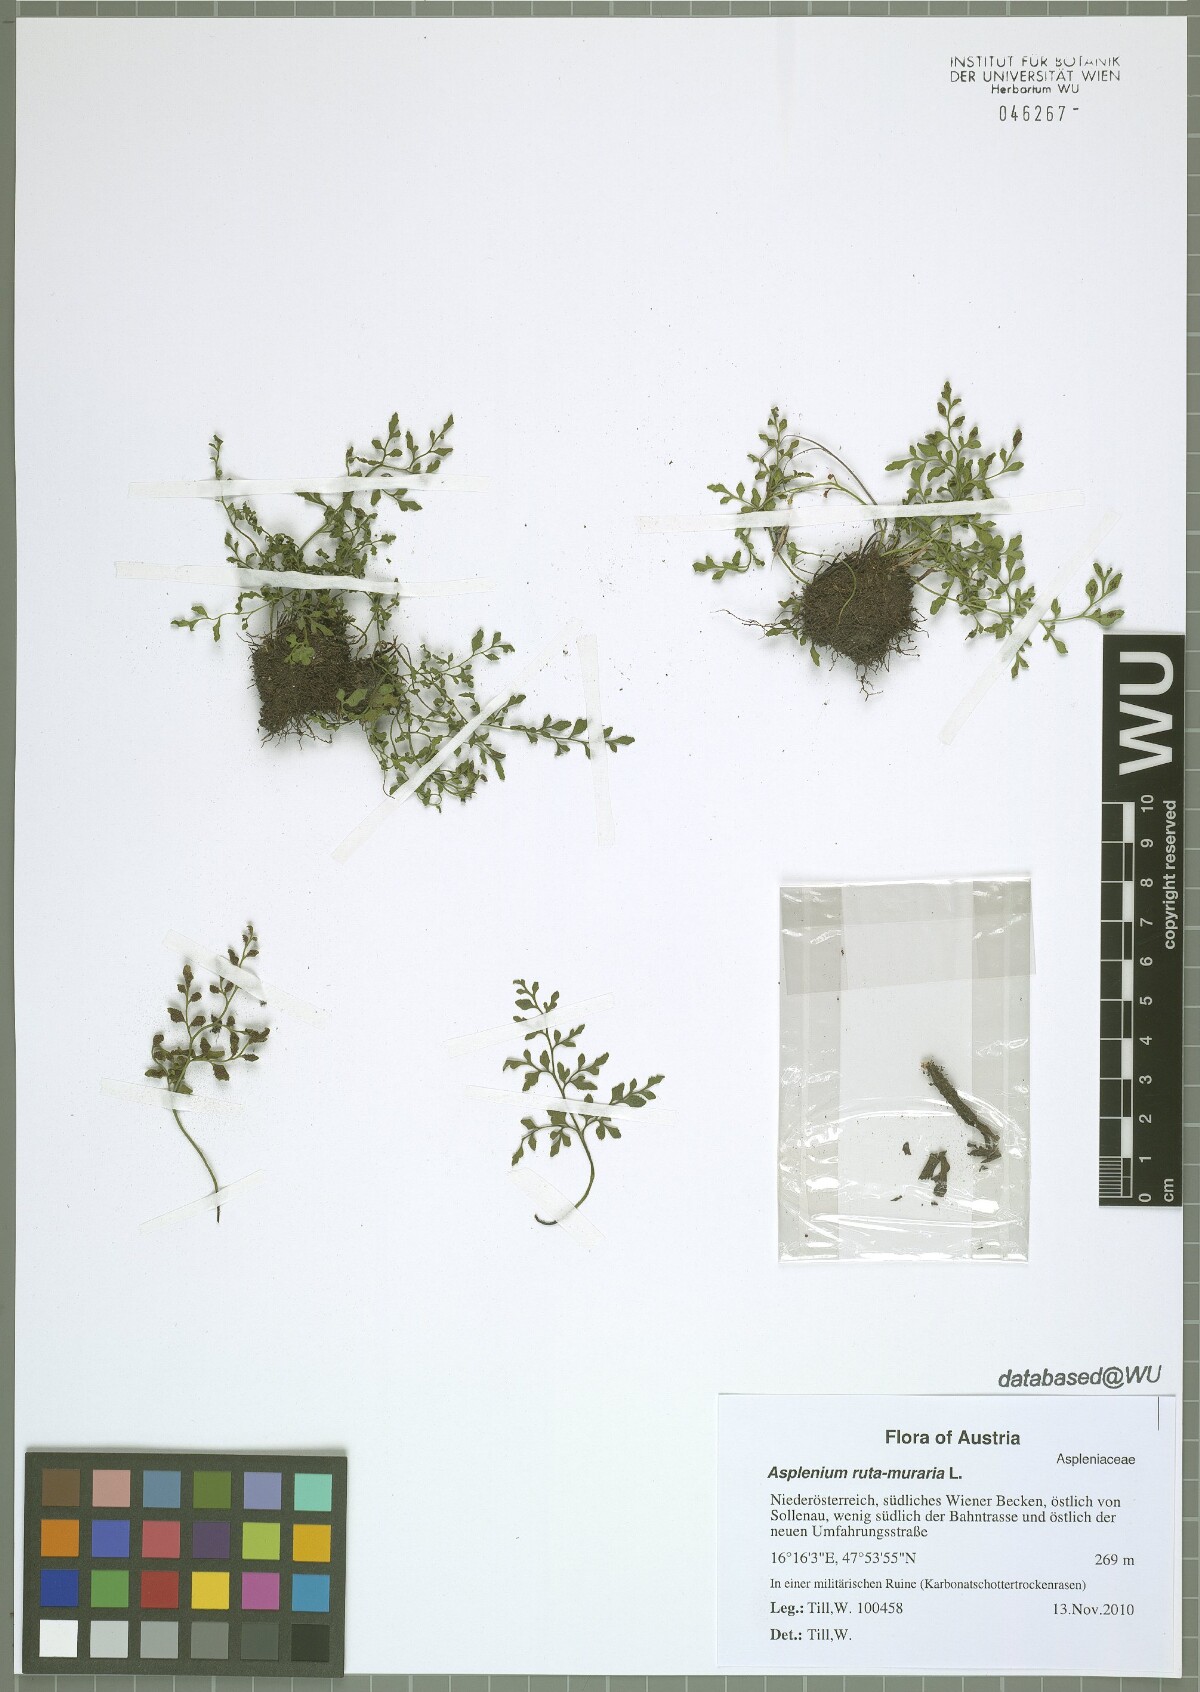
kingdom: Plantae
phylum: Tracheophyta
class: Polypodiopsida
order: Polypodiales
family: Aspleniaceae
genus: Asplenium
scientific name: Asplenium ruta-muraria
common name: Wall-rue
